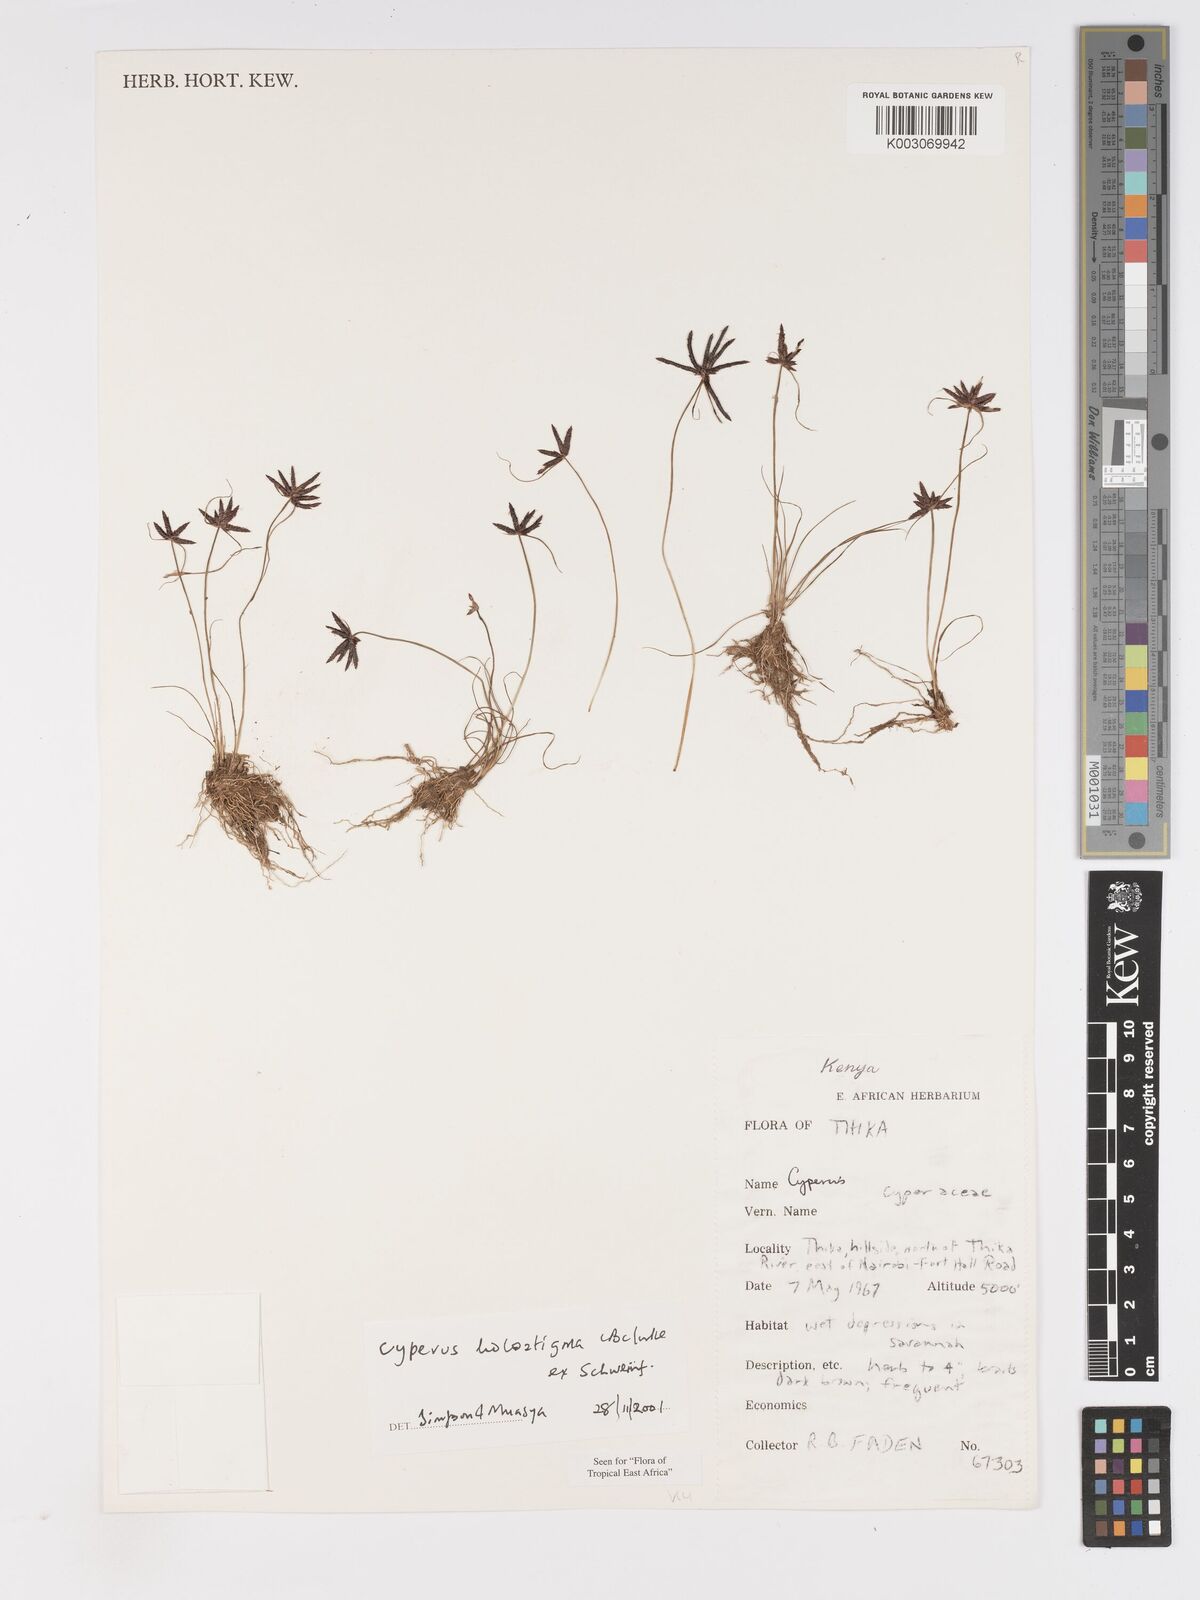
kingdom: Plantae
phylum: Tracheophyta
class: Liliopsida
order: Poales
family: Cyperaceae
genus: Cyperus
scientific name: Cyperus holostigma
